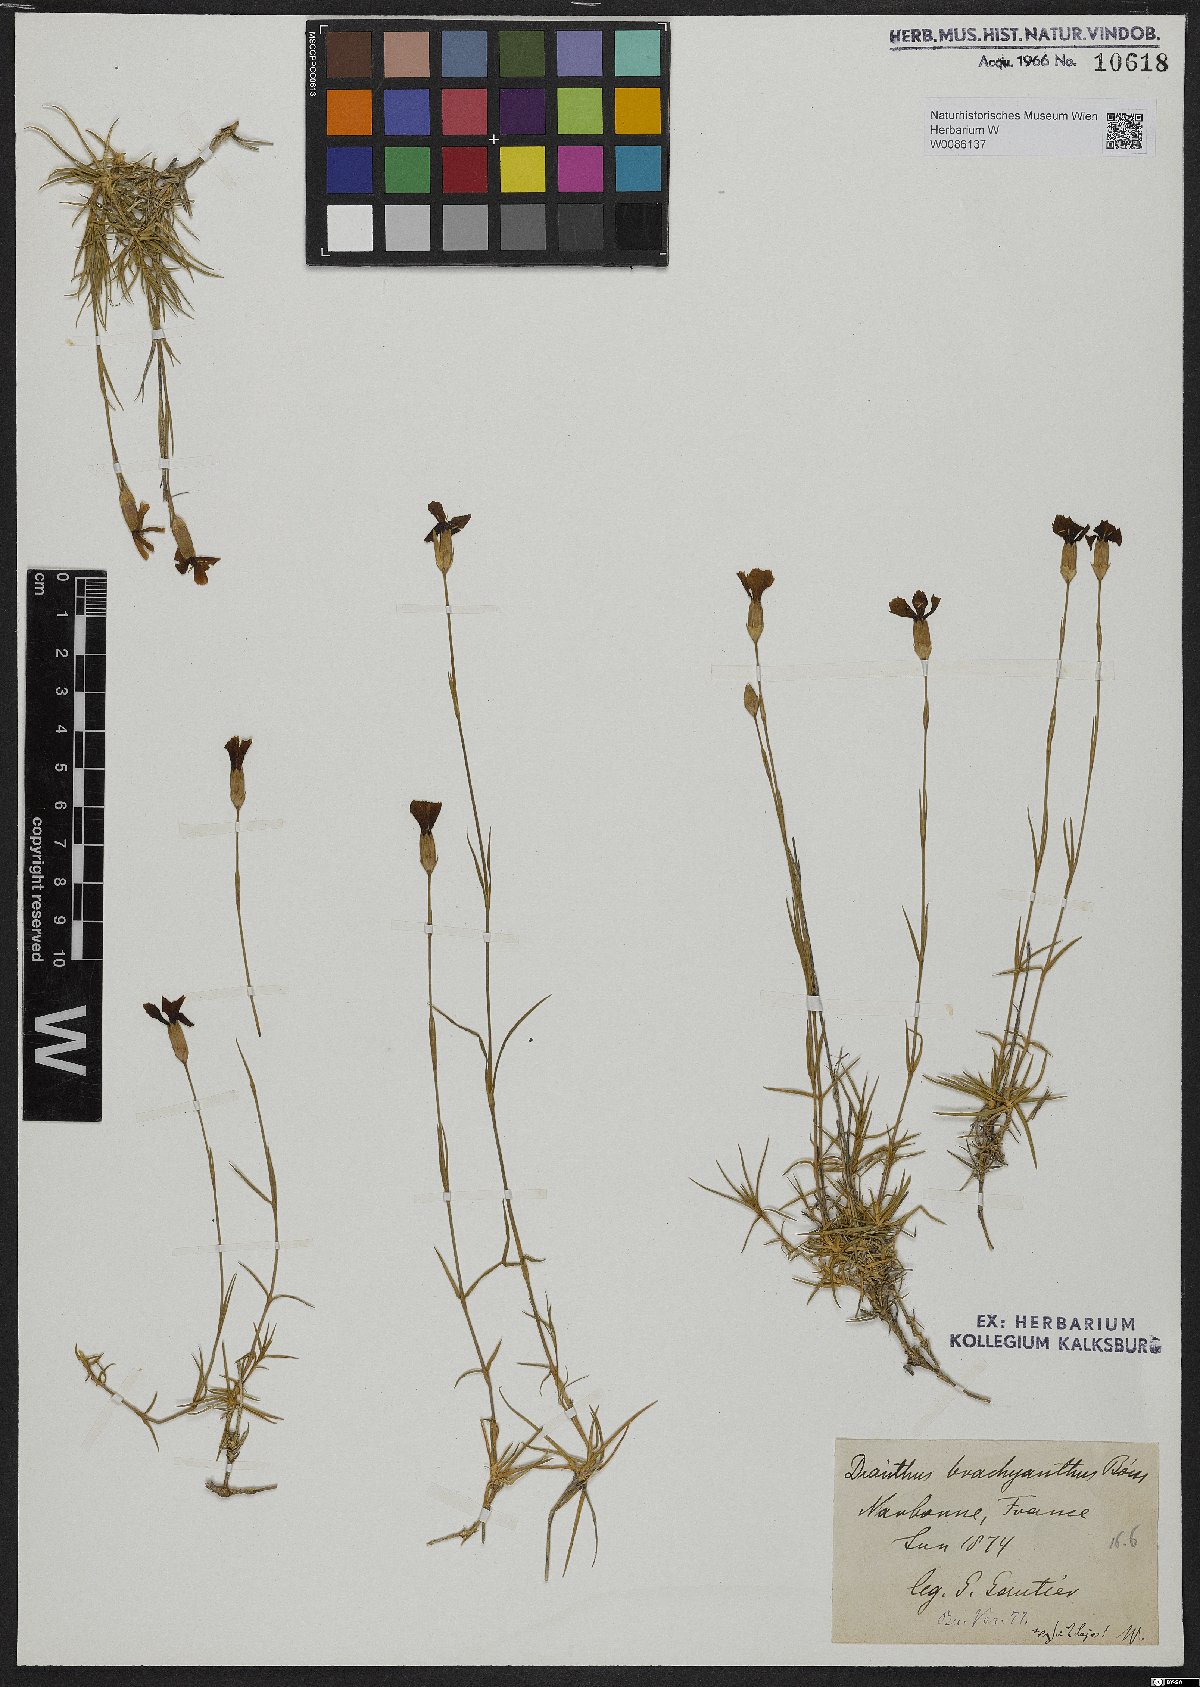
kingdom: Plantae
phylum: Tracheophyta
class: Magnoliopsida
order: Caryophyllales
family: Caryophyllaceae
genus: Dianthus
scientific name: Dianthus pungens
